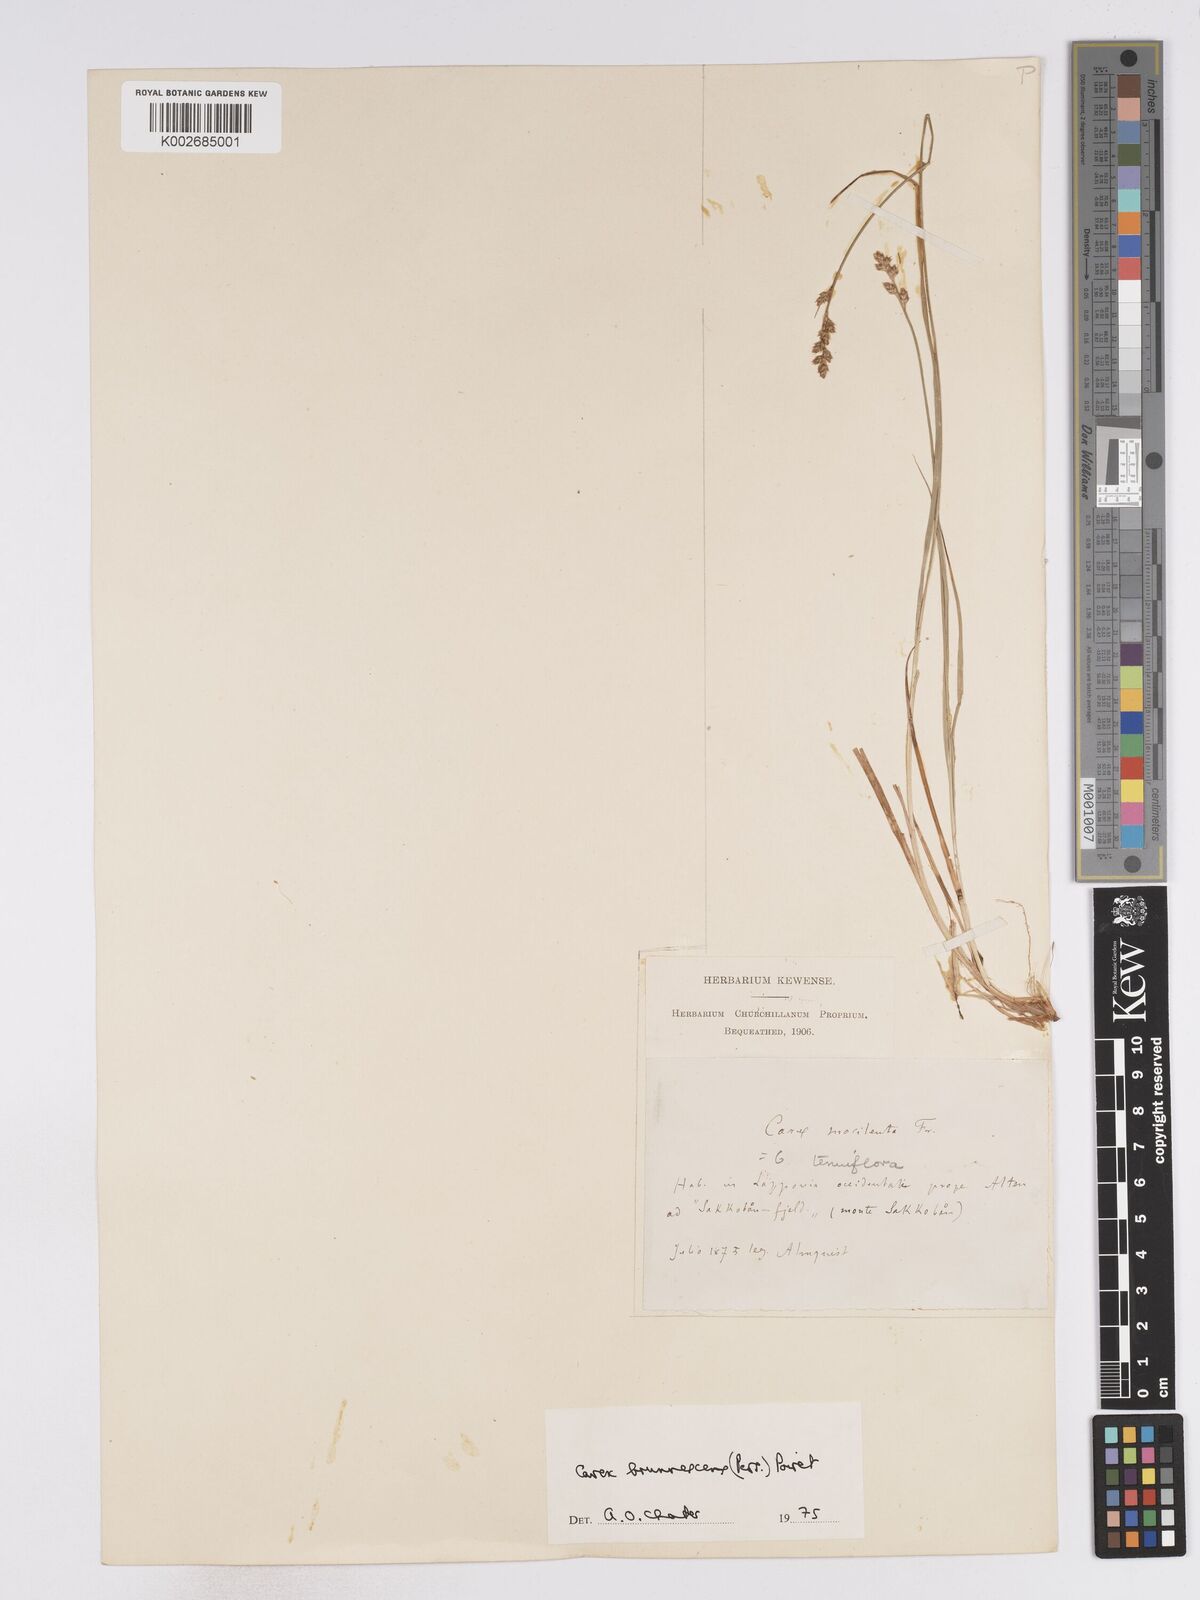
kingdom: Plantae
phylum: Tracheophyta
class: Liliopsida
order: Poales
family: Cyperaceae
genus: Carex
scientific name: Carex brunnescens
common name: Brown sedge
